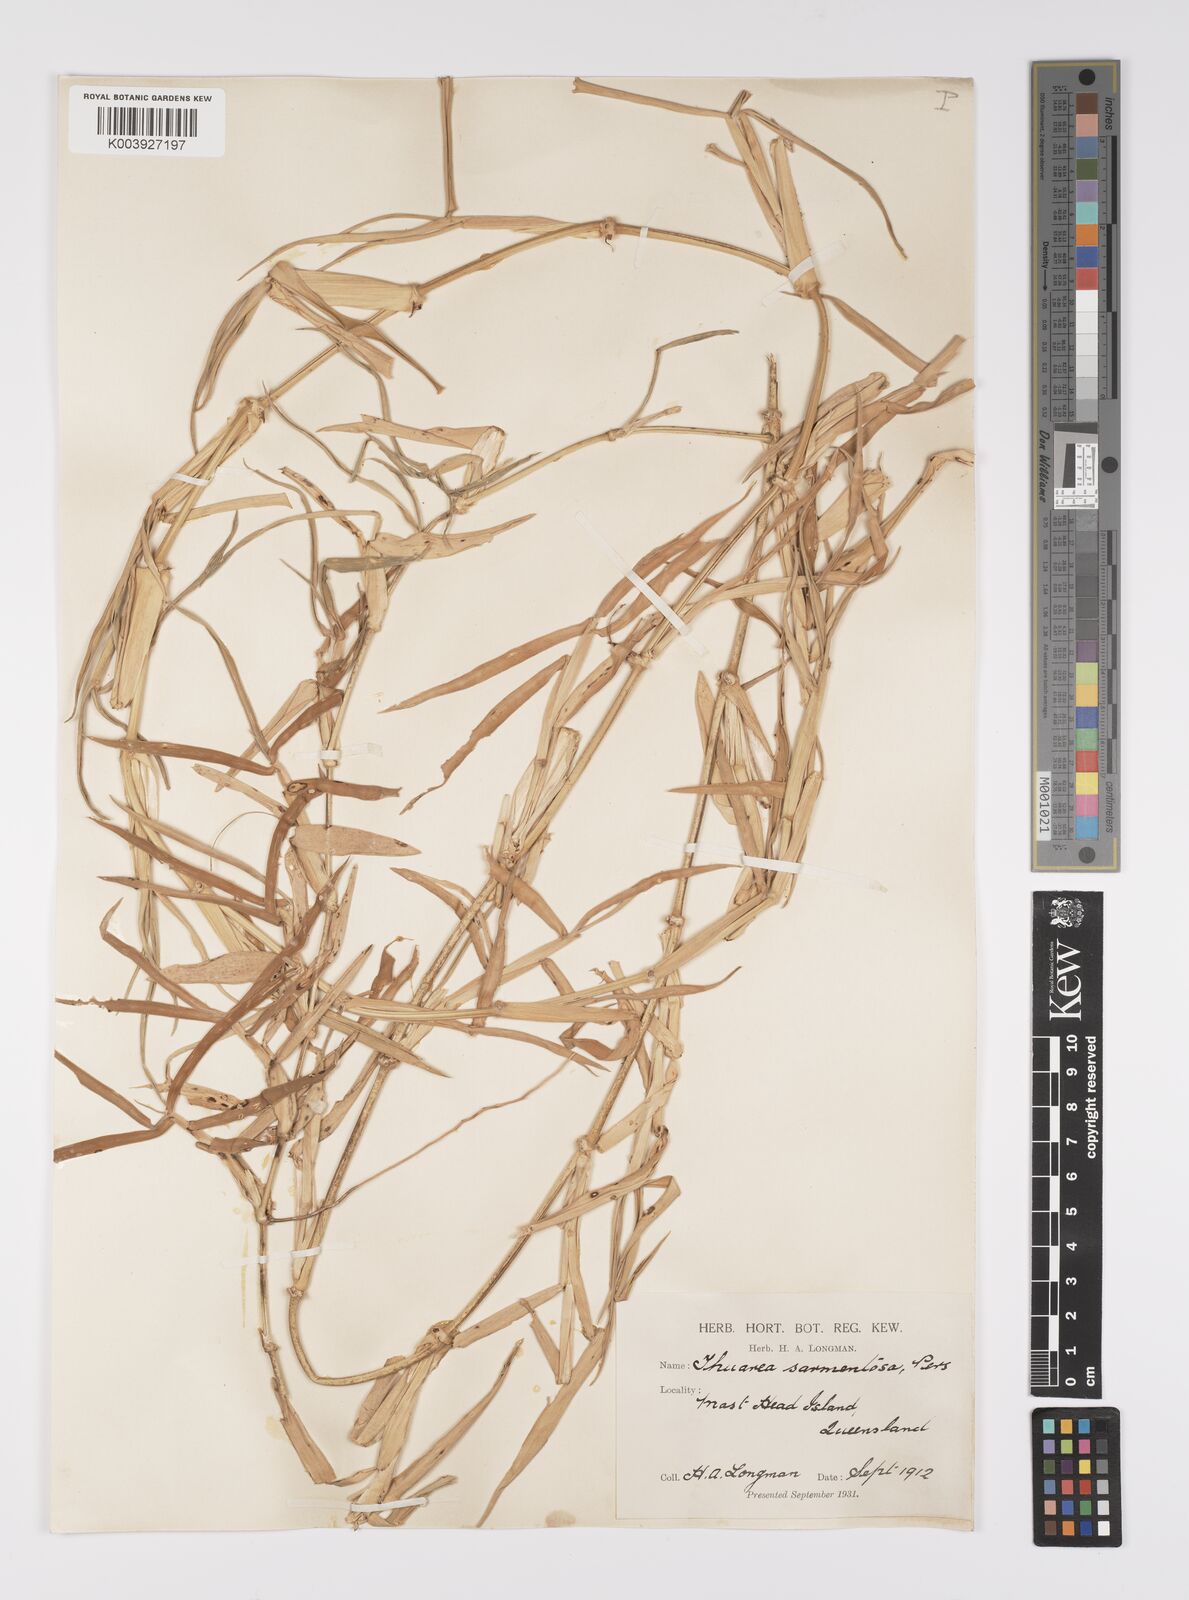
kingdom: Plantae
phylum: Tracheophyta
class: Liliopsida
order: Poales
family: Poaceae
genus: Thuarea
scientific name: Thuarea involuta
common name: Tropical beach grass
